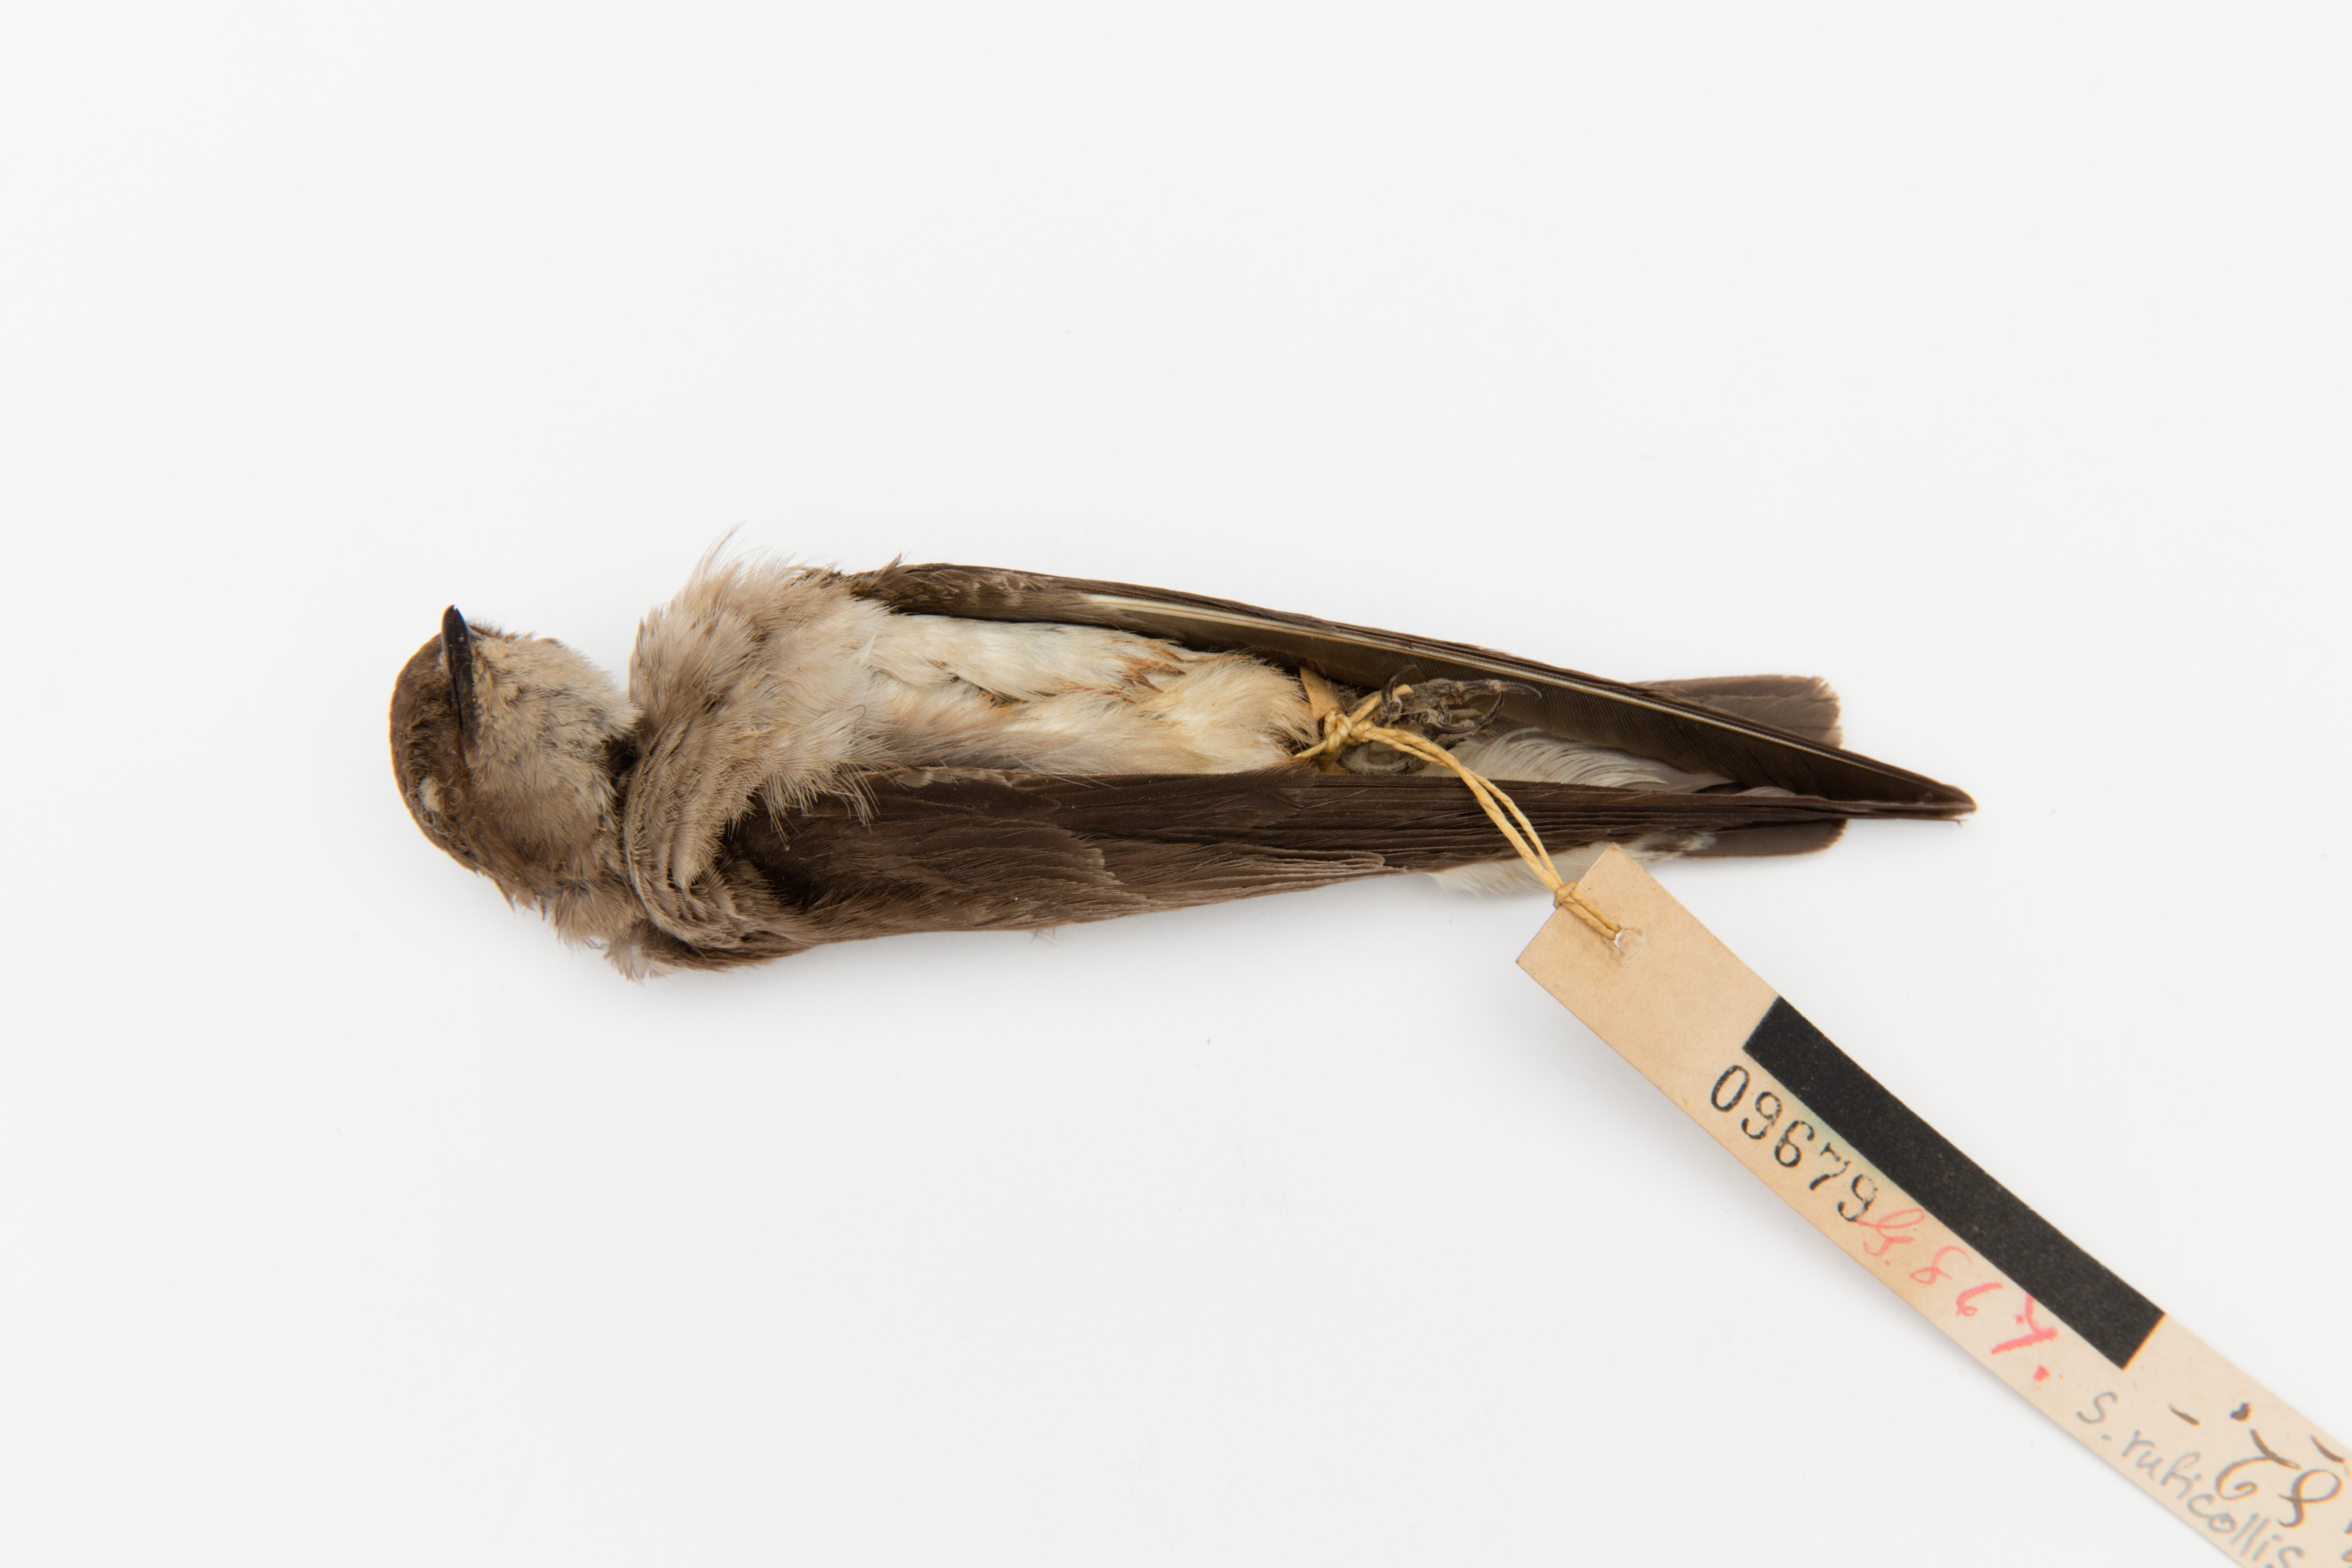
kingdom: Animalia
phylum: Chordata
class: Aves
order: Passeriformes
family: Hirundinidae
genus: Stelgidopteryx
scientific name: Stelgidopteryx ruficollis
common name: Southern rough-winged swallow
